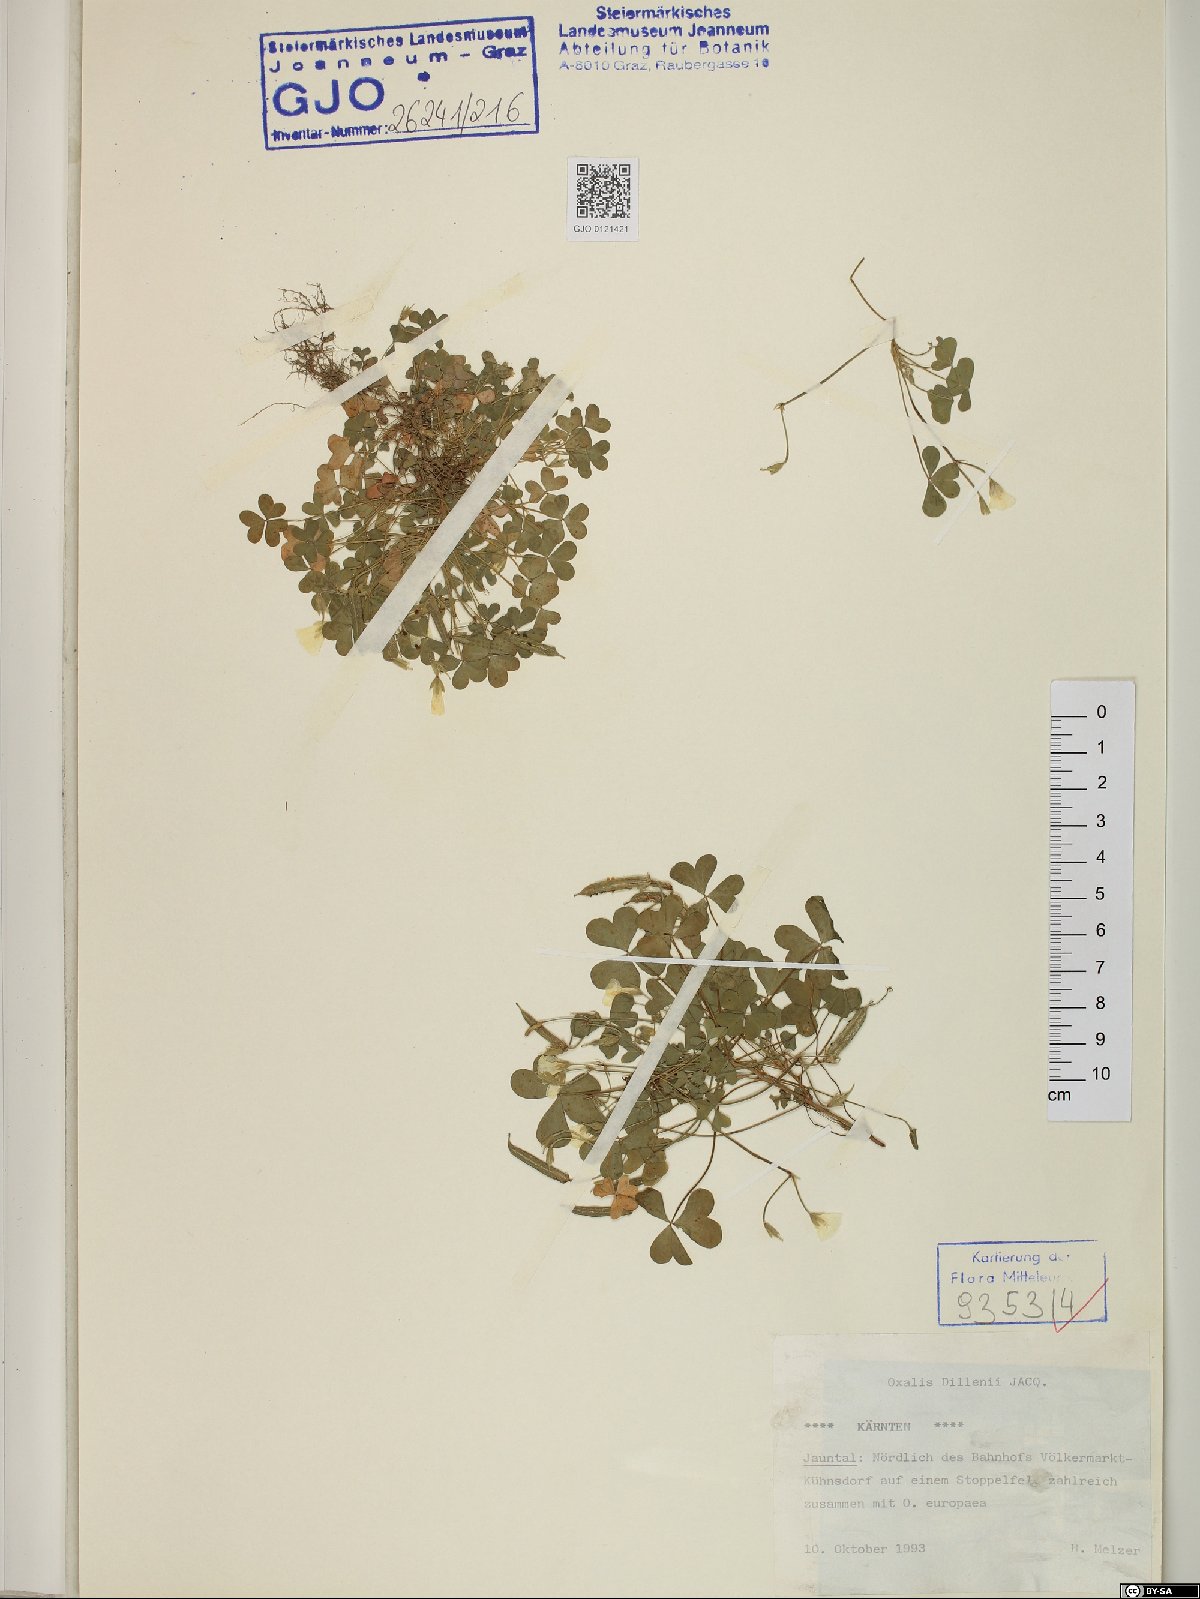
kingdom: Plantae
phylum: Tracheophyta
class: Magnoliopsida
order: Oxalidales
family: Oxalidaceae
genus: Oxalis
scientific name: Oxalis dillenii
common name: Sussex yellow-sorrel
